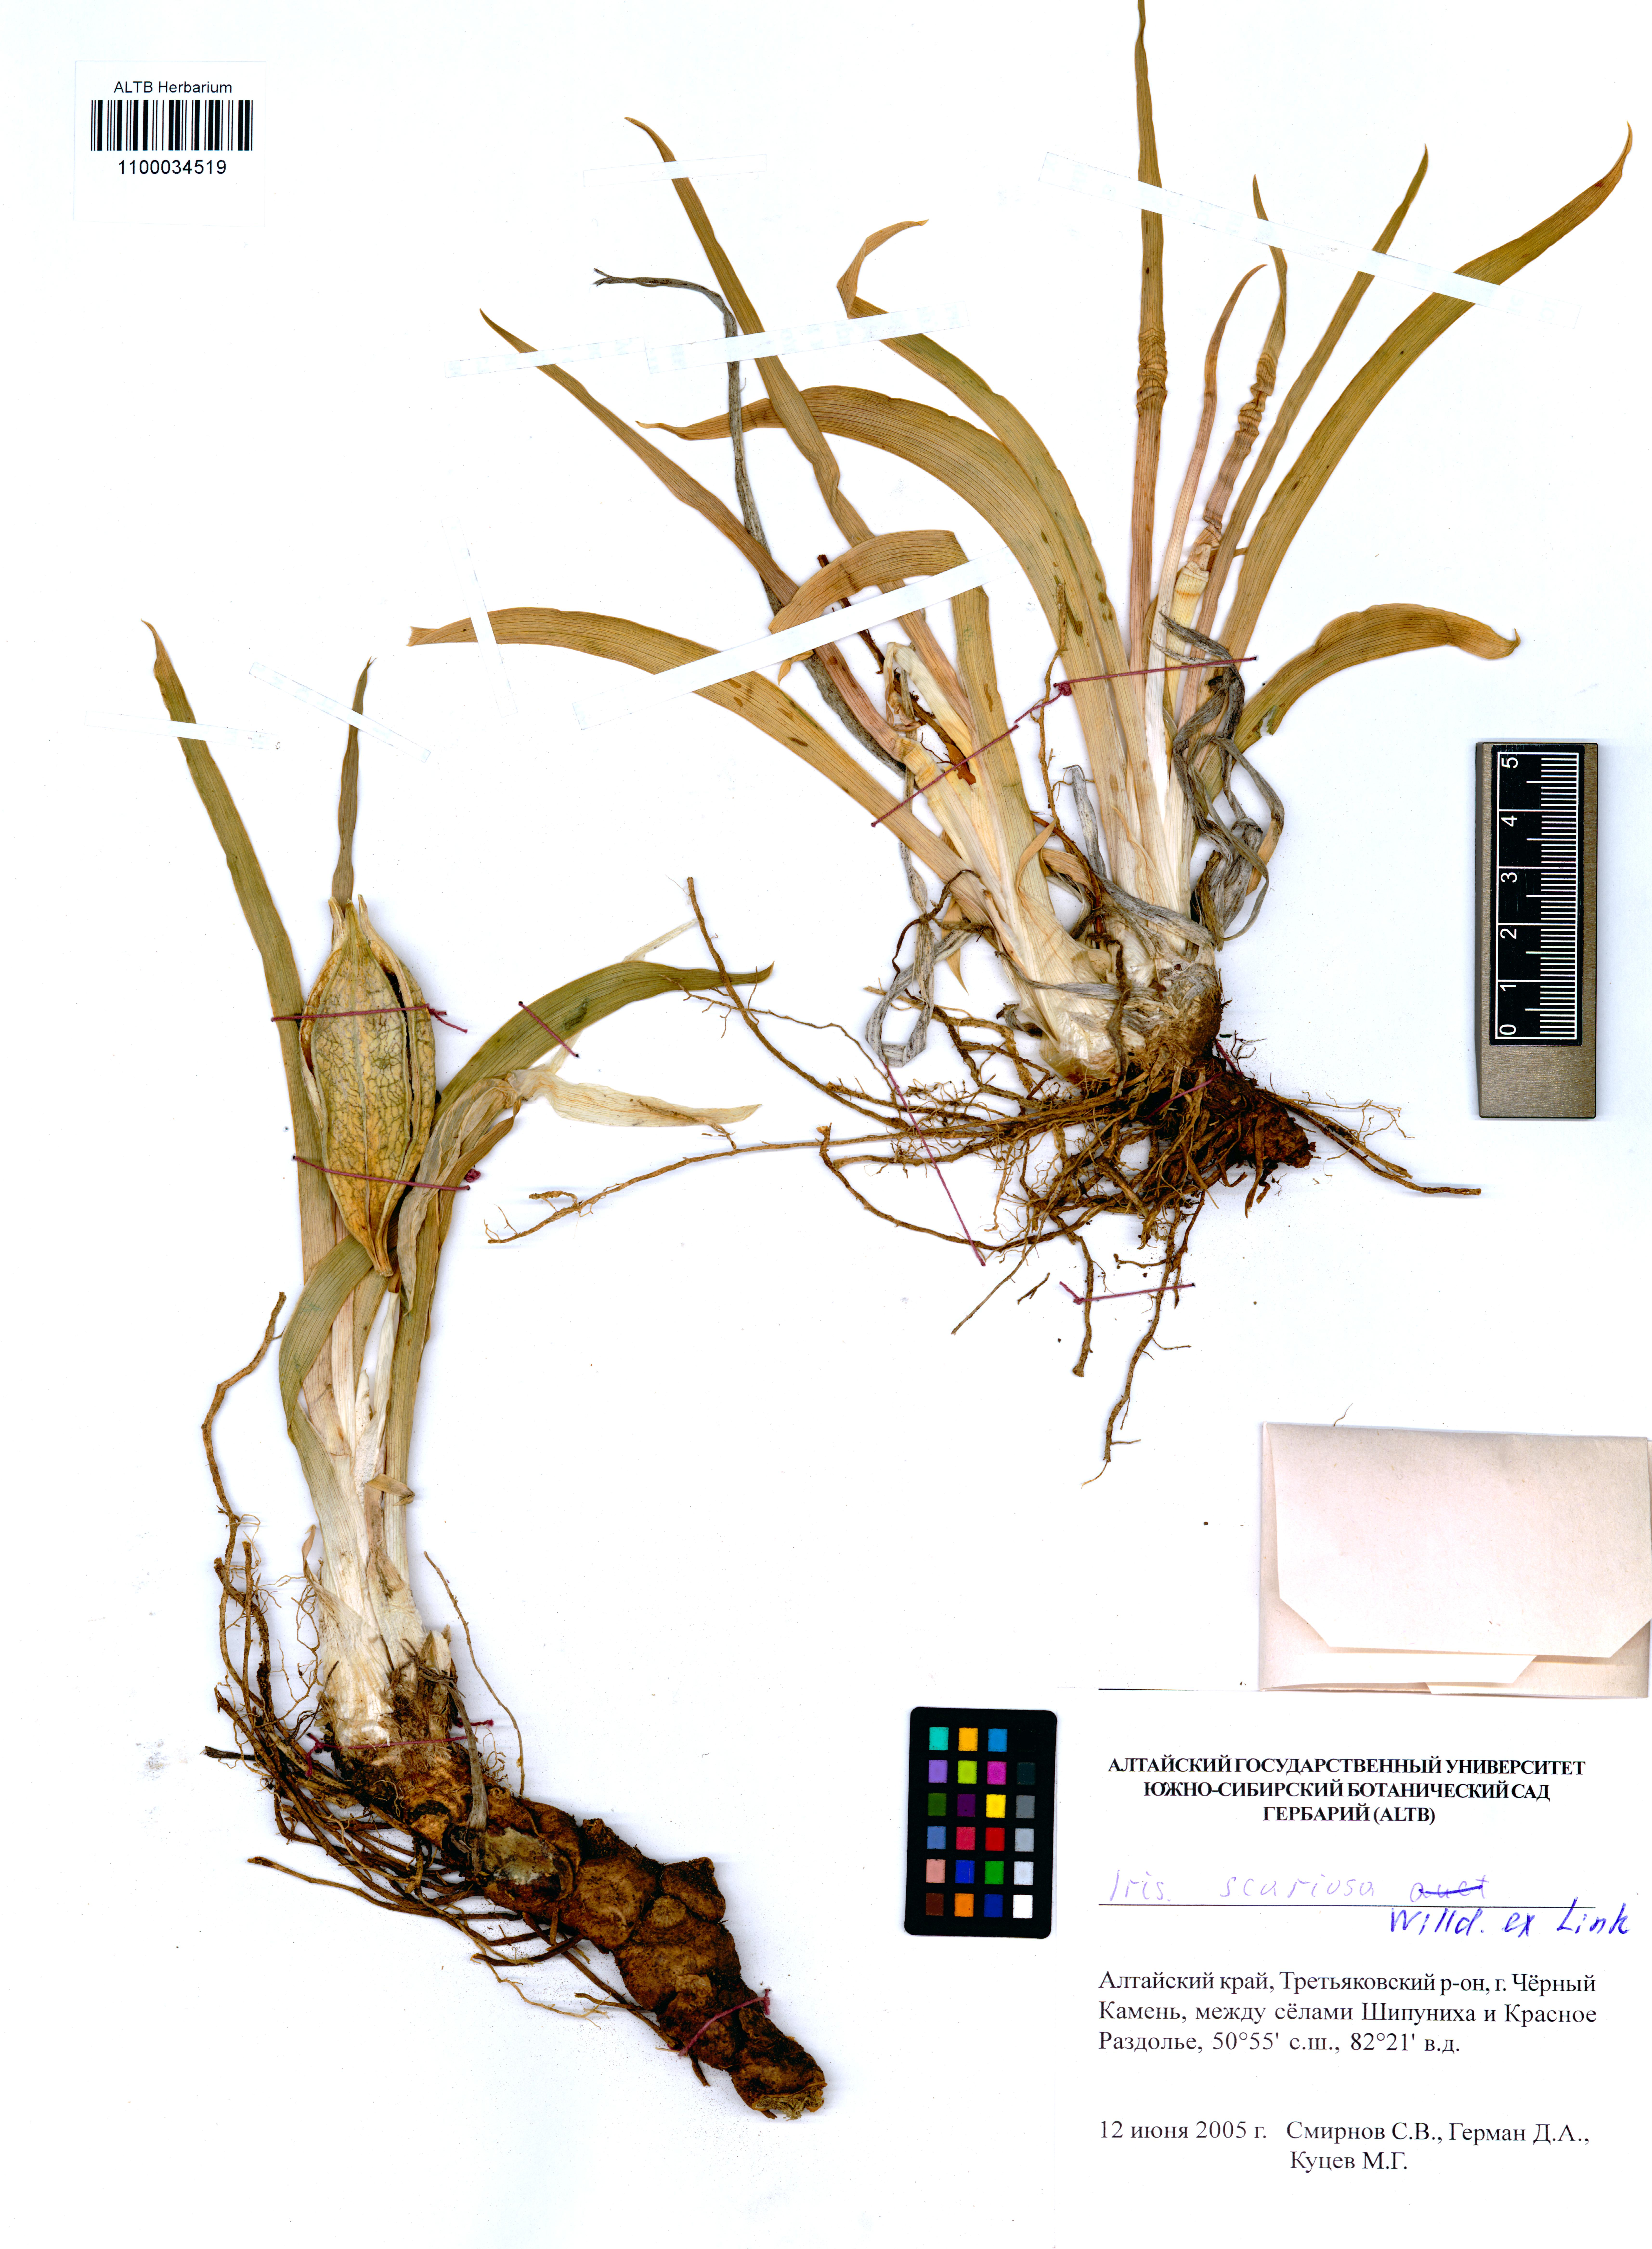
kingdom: Plantae
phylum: Tracheophyta
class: Liliopsida
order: Asparagales
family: Iridaceae
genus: Iris
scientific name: Iris glaucescens
